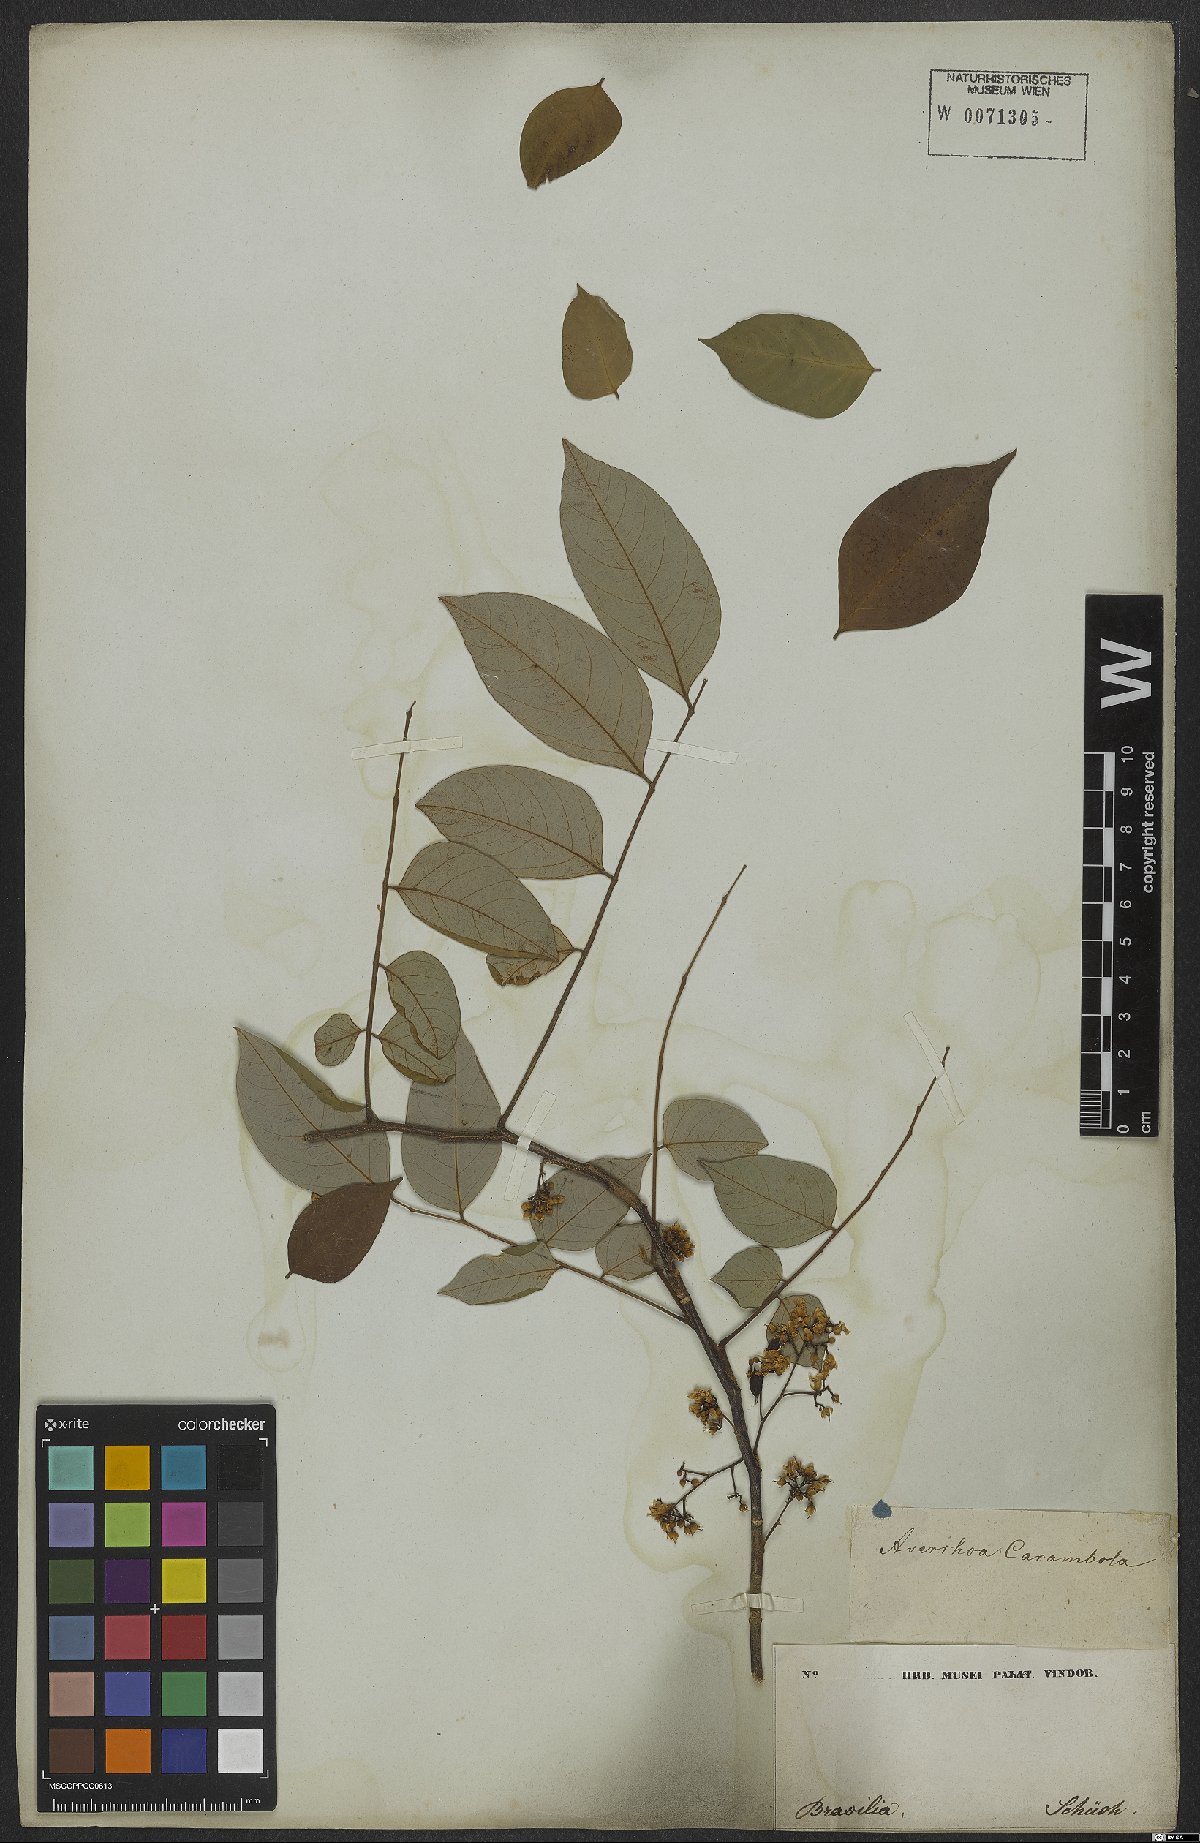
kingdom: Plantae
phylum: Tracheophyta
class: Magnoliopsida
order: Oxalidales
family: Oxalidaceae
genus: Averrhoa
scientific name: Averrhoa carambola
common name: Blimbing
